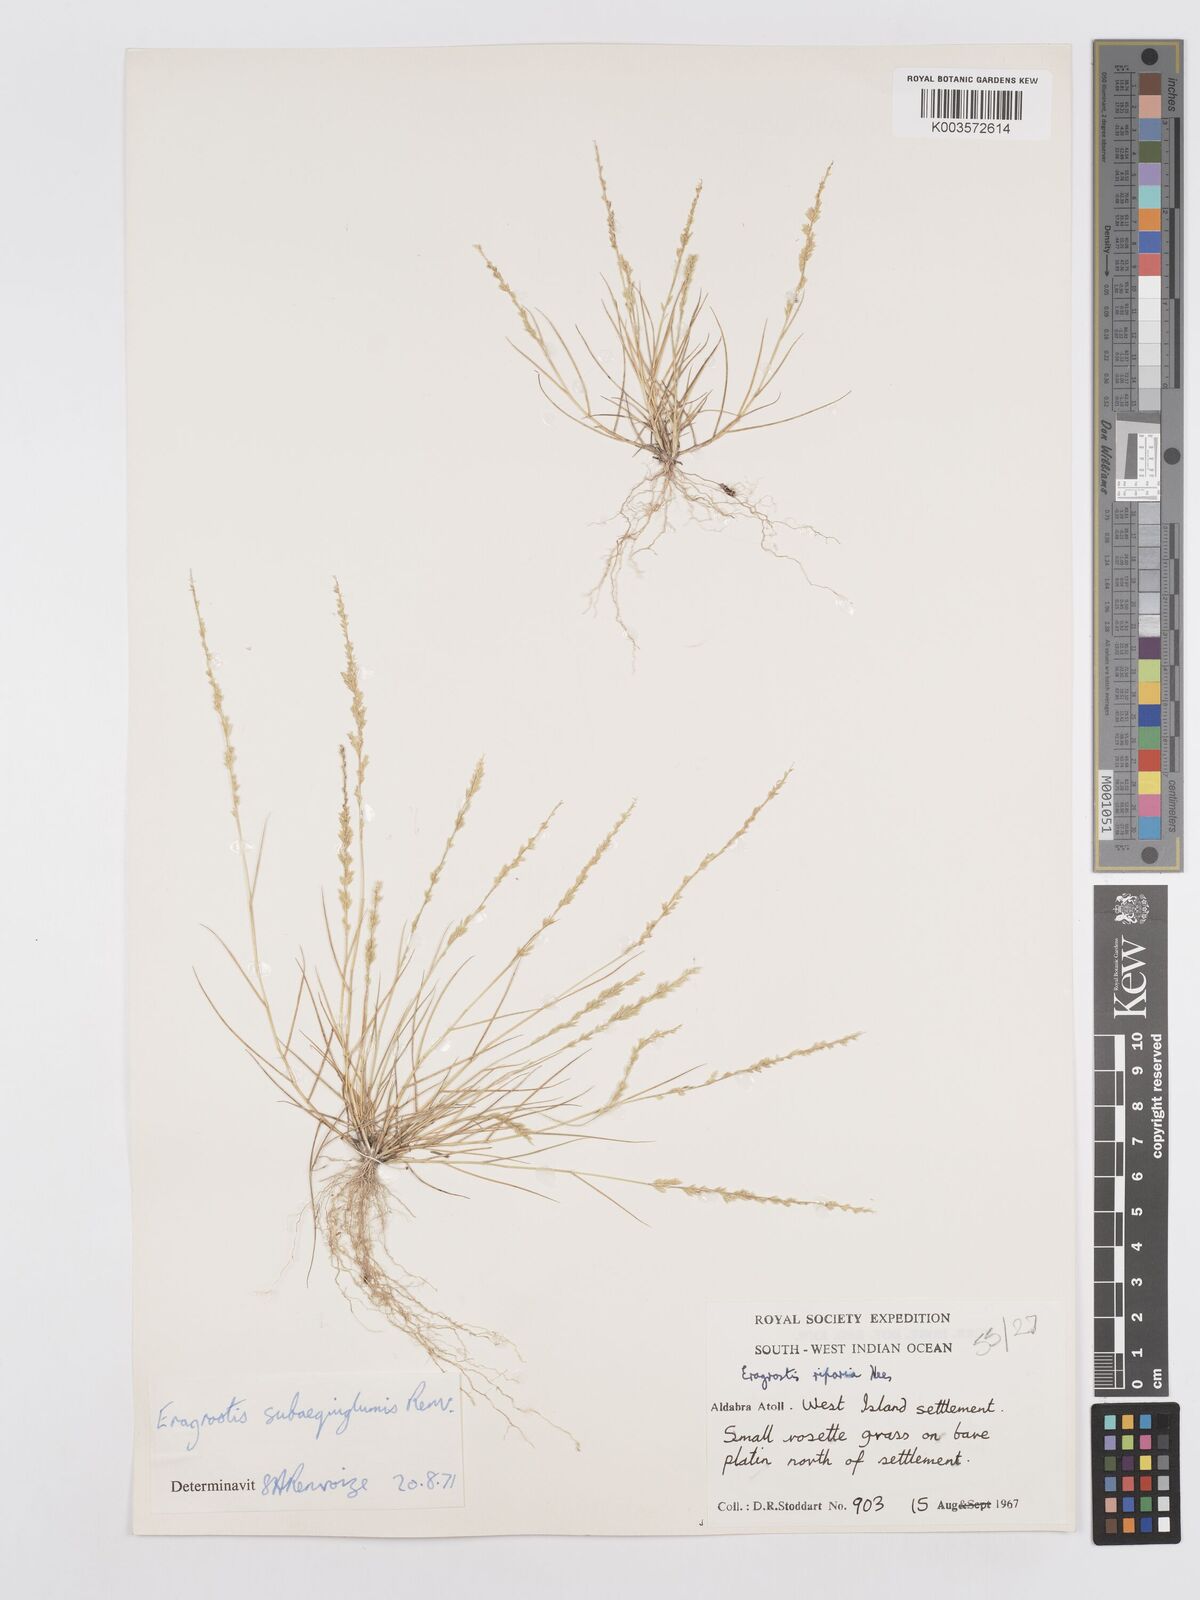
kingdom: Plantae
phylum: Tracheophyta
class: Liliopsida
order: Poales
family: Poaceae
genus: Eragrostis
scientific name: Eragrostis subaequiglumis
